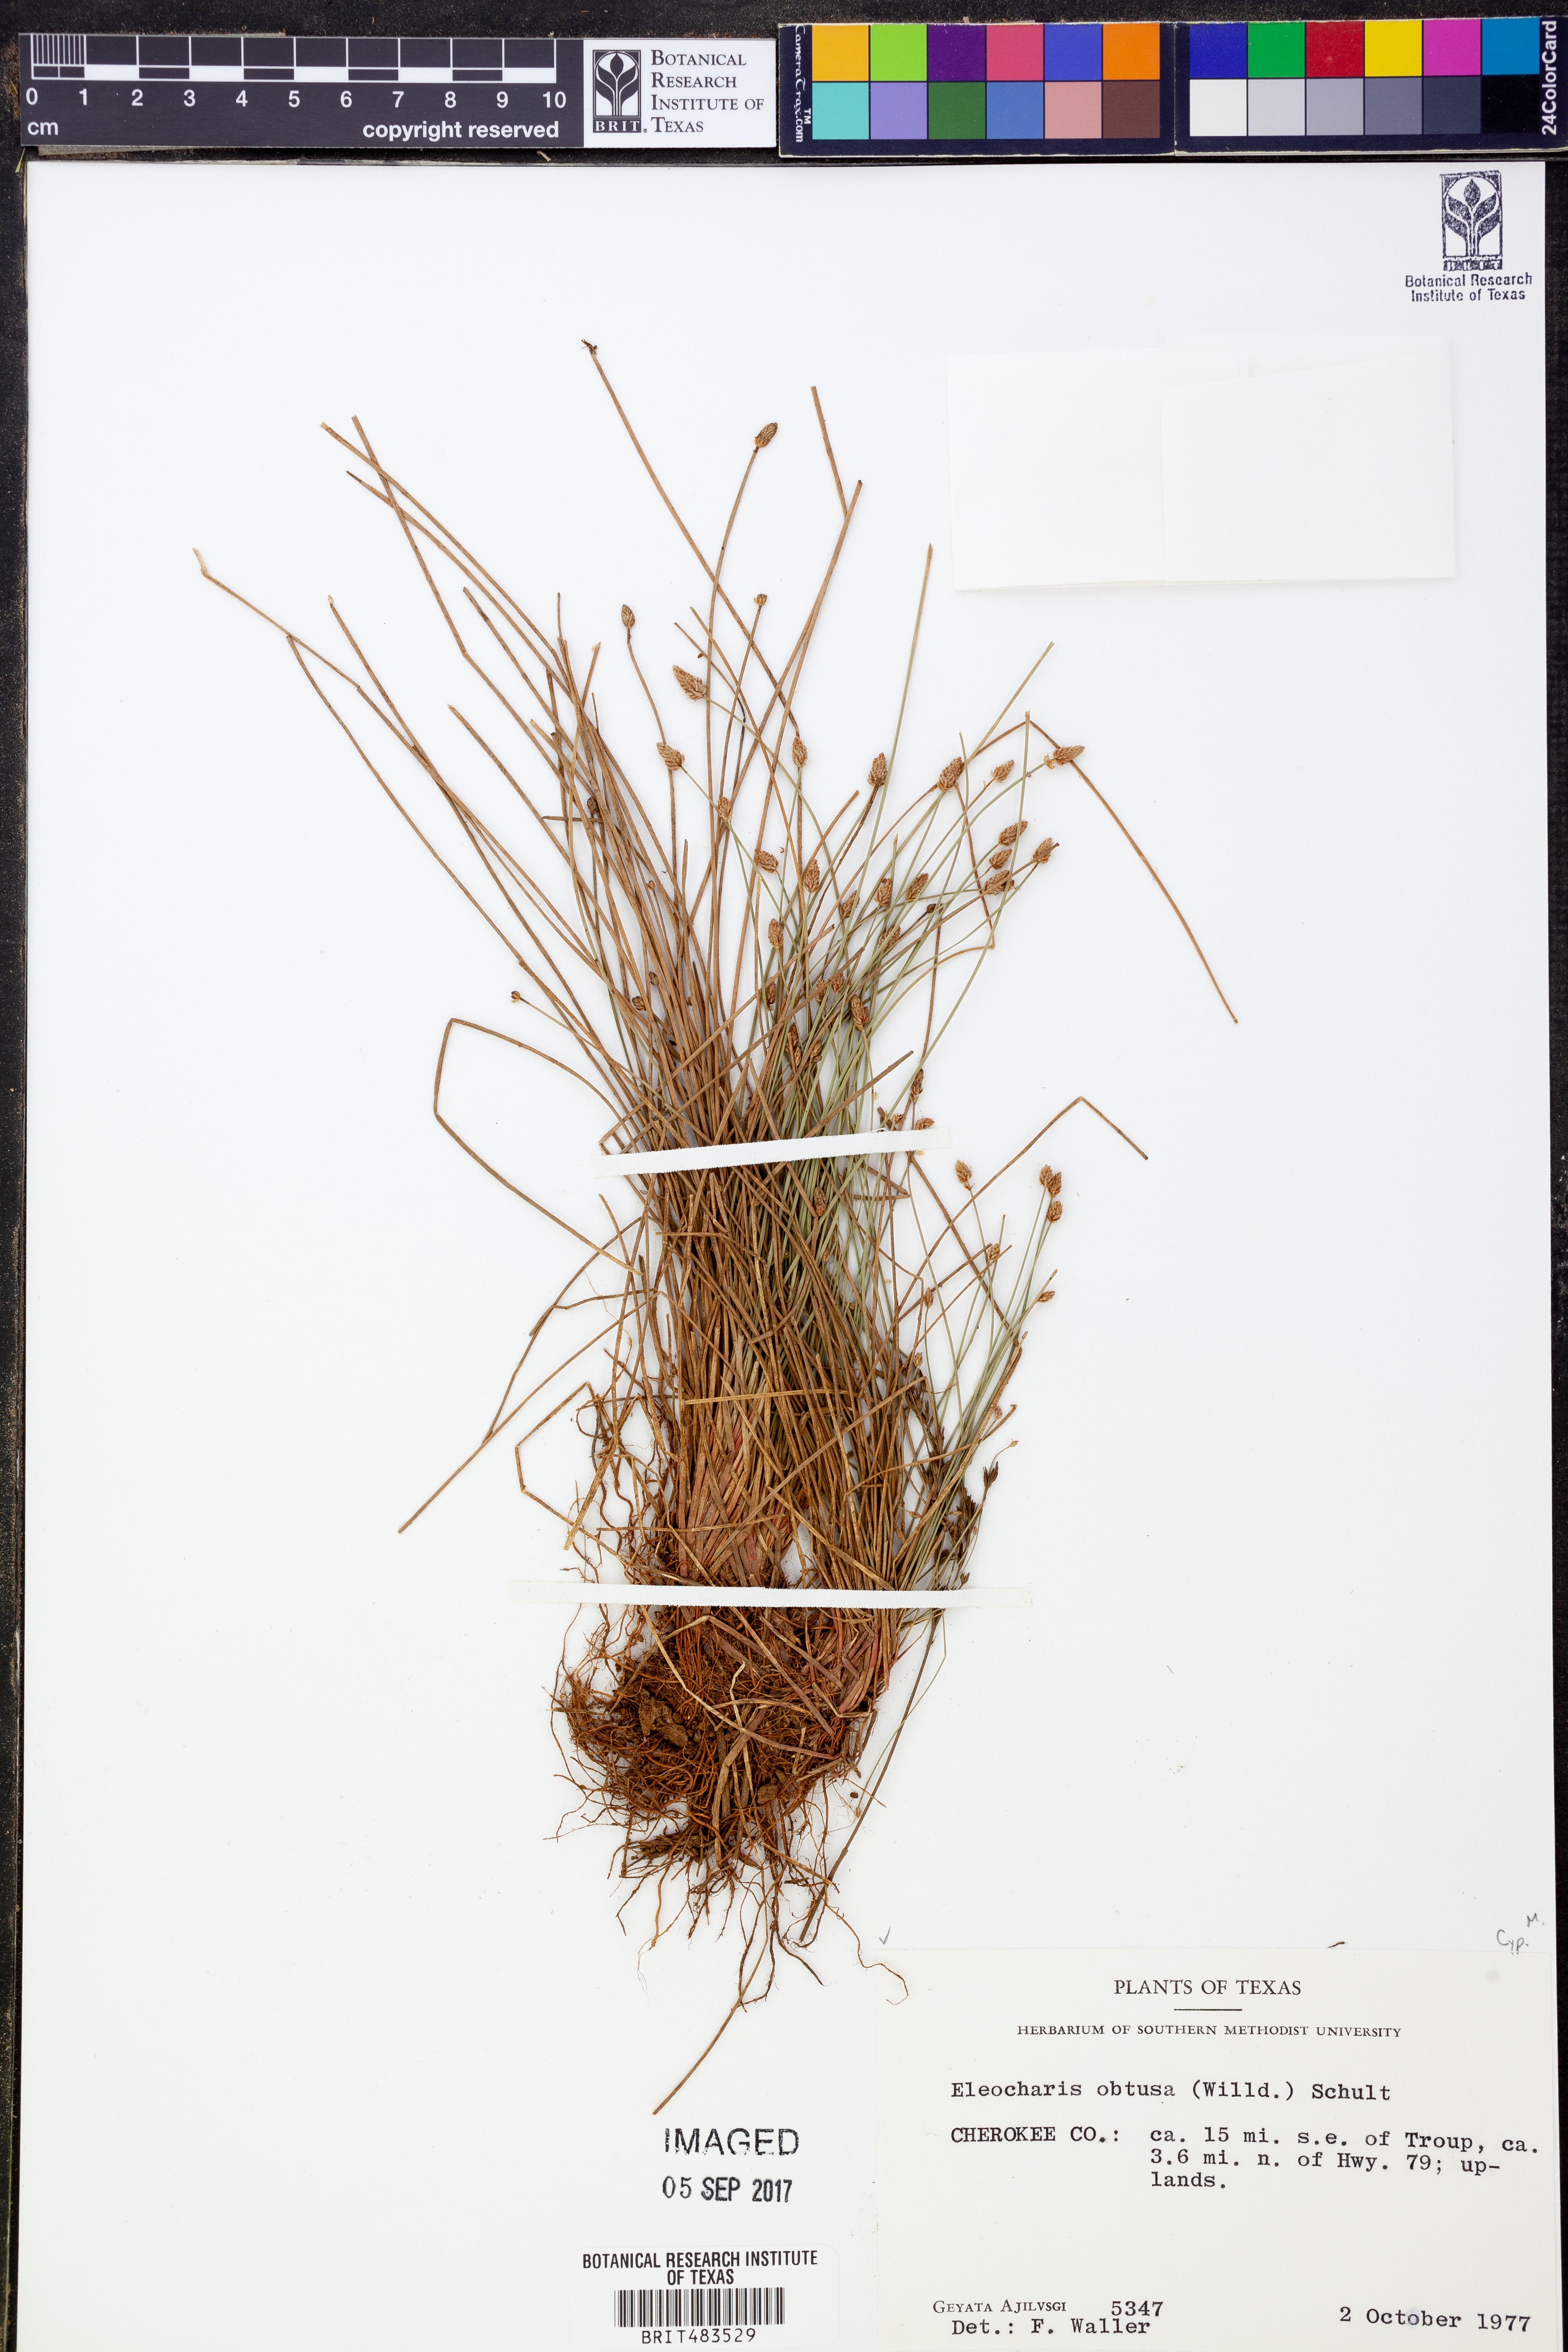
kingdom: Plantae
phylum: Tracheophyta
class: Liliopsida
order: Poales
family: Cyperaceae
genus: Eleocharis
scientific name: Eleocharis obtusa
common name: Blunt spikerush
